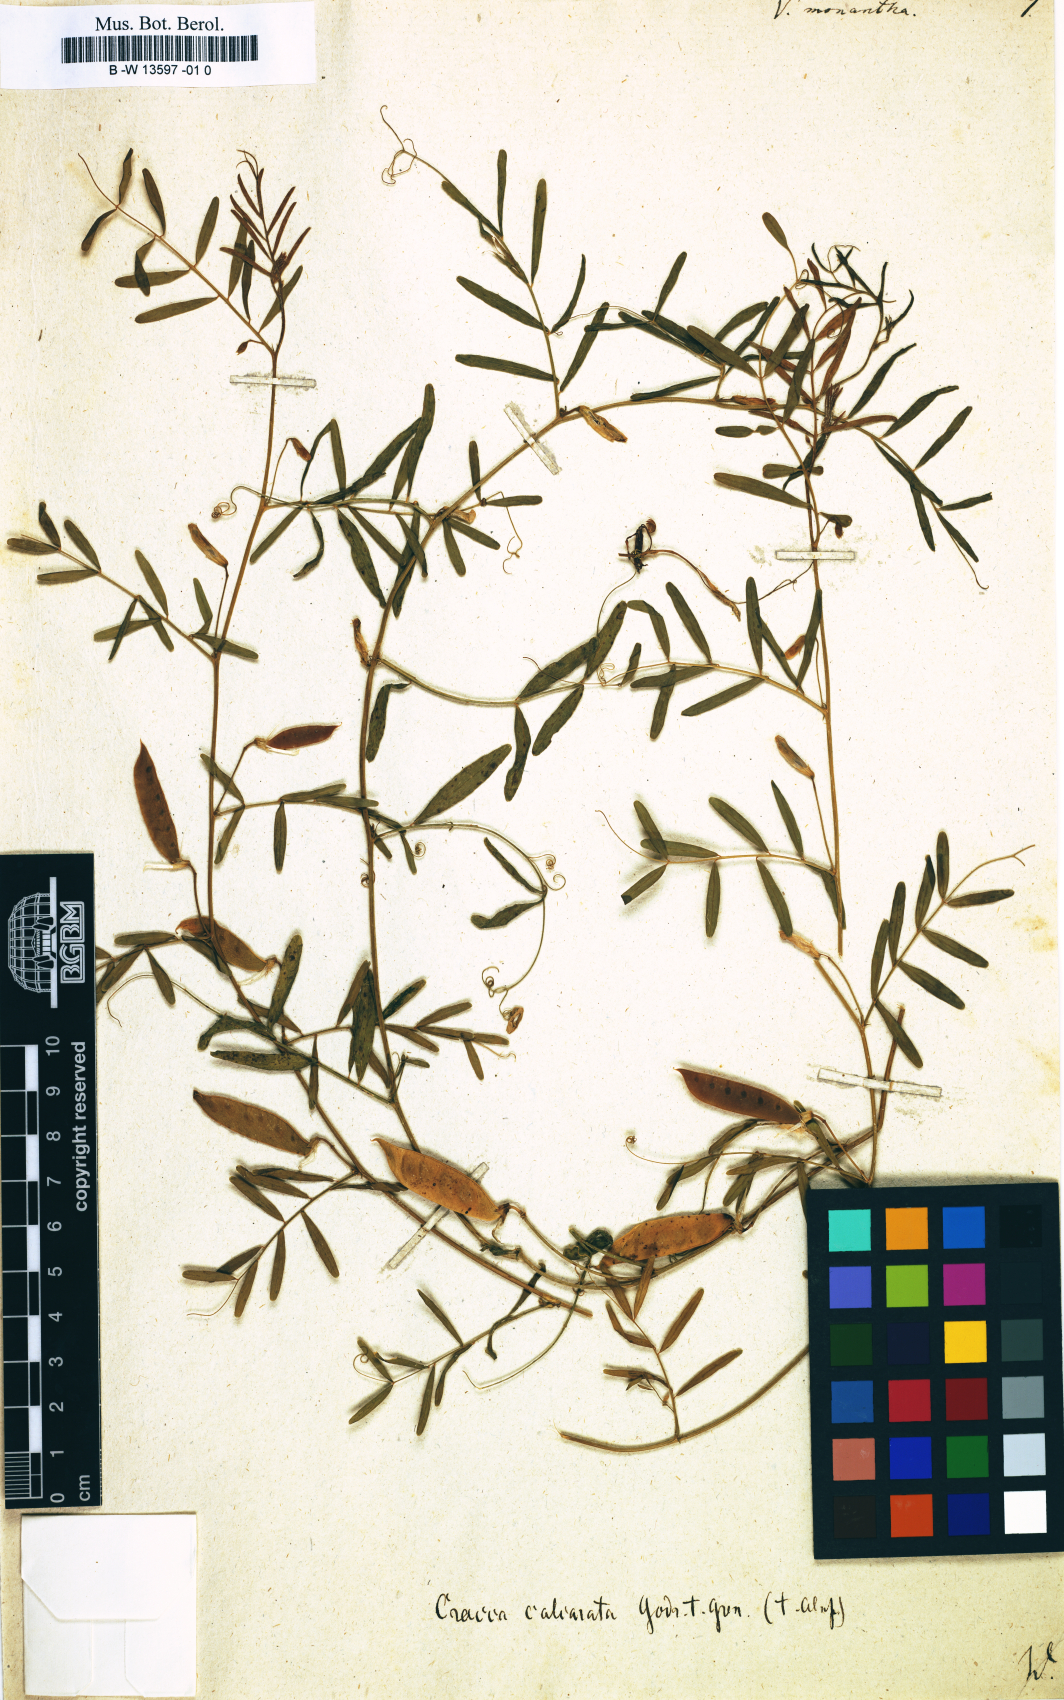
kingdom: Plantae
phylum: Tracheophyta
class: Magnoliopsida
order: Fabales
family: Fabaceae
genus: Vicia
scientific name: Vicia monantha
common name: Barn vetch
